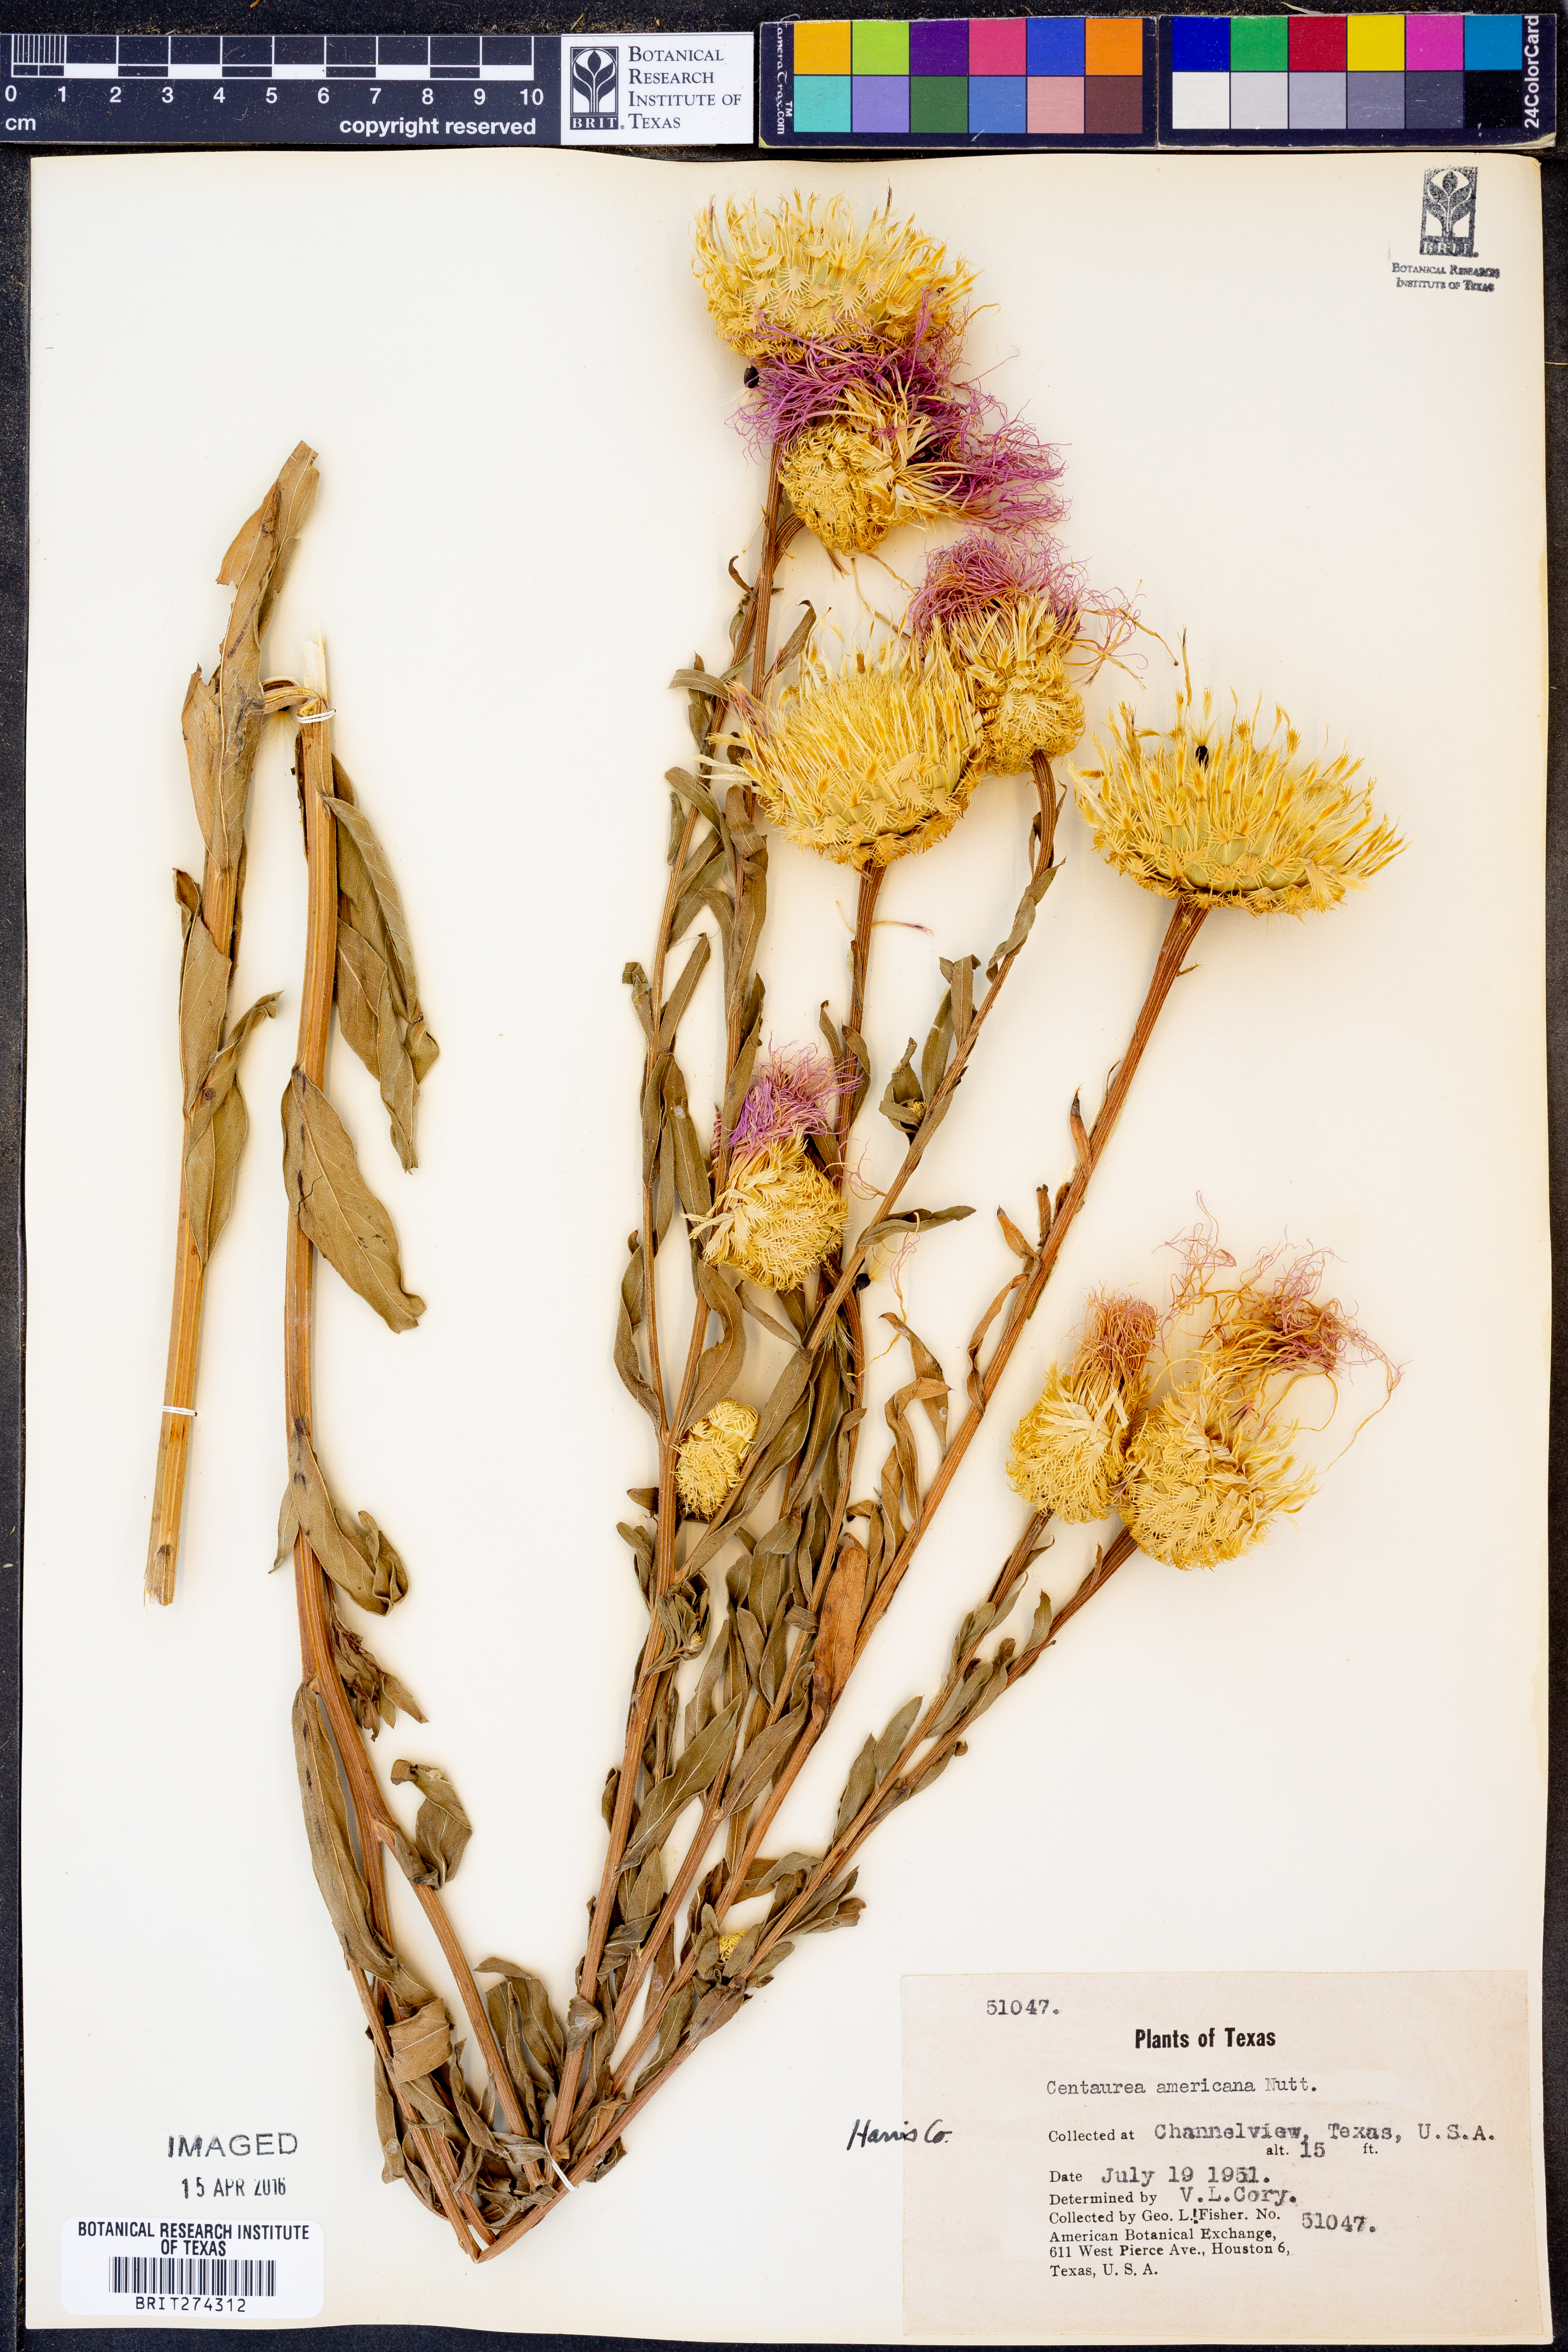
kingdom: Plantae
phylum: Tracheophyta
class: Magnoliopsida
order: Asterales
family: Asteraceae
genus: Plectocephalus
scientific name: Plectocephalus americanus
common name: American basket-flower
